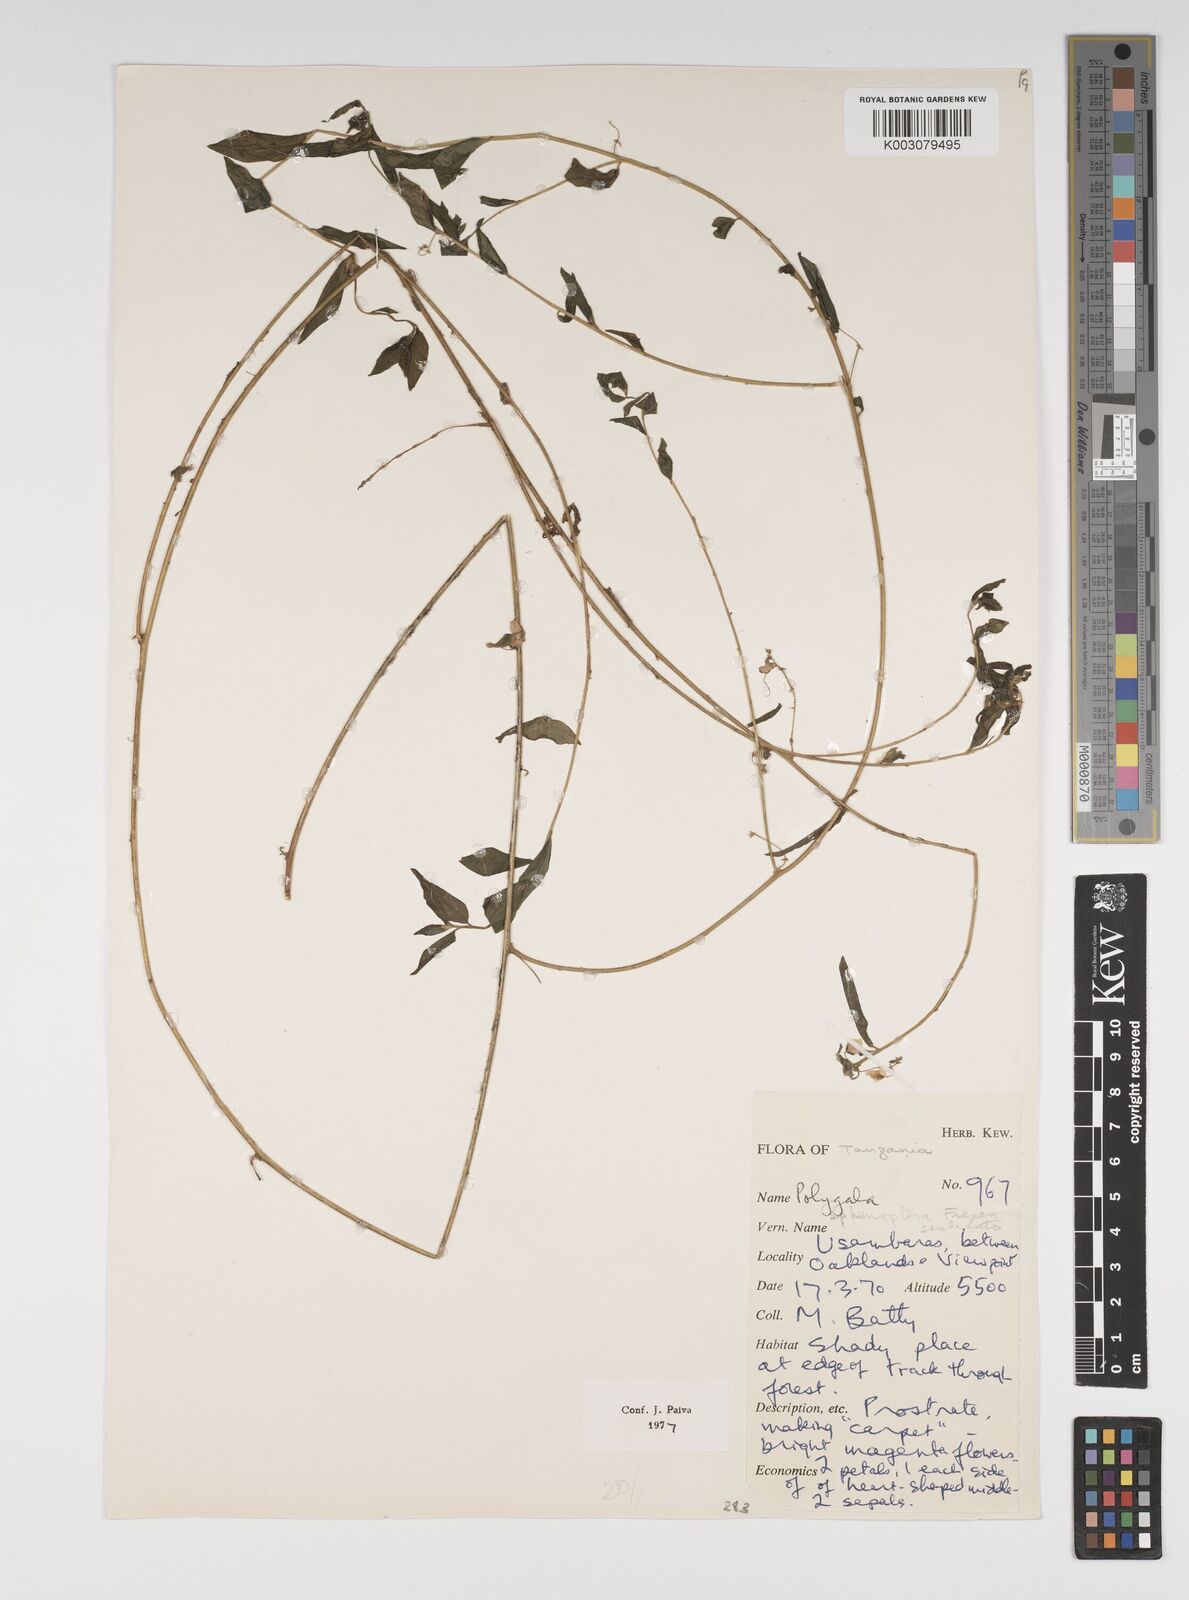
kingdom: Plantae
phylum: Tracheophyta
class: Magnoliopsida
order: Fabales
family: Polygalaceae
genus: Polygala
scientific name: Polygala sphenoptera
